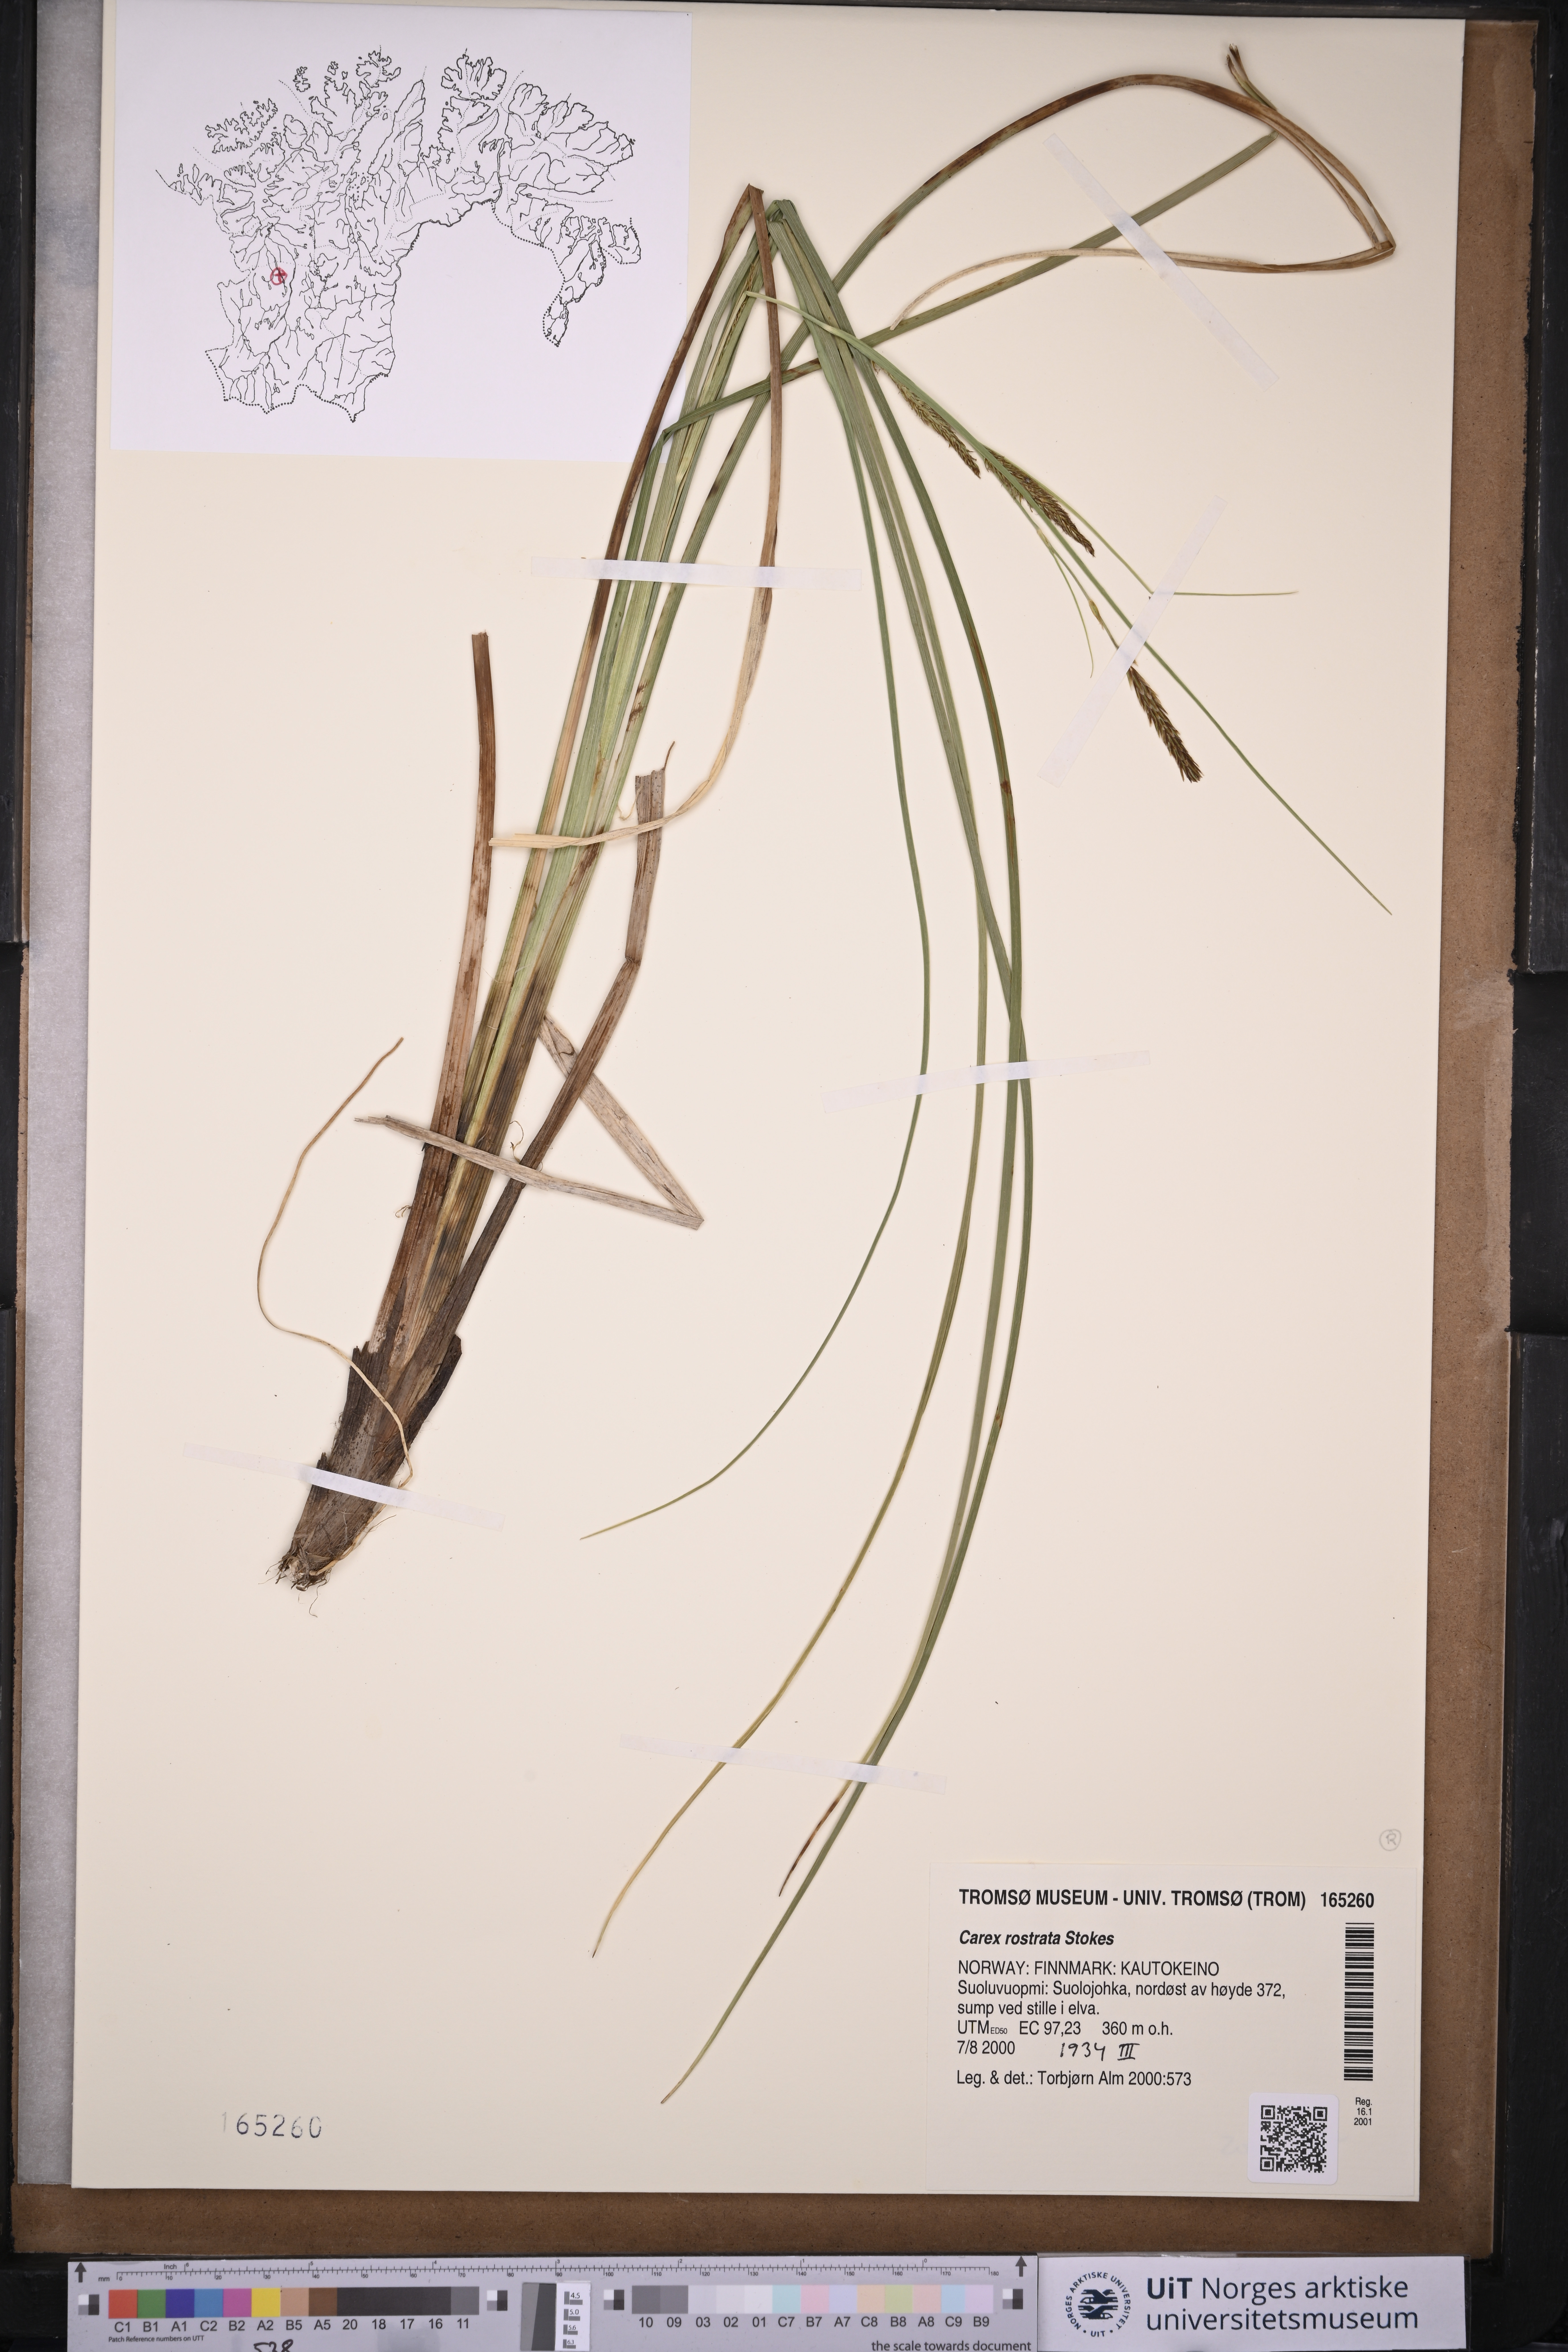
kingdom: Plantae
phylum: Tracheophyta
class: Liliopsida
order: Poales
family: Cyperaceae
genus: Carex
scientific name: Carex rostrata
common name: Bottle sedge
